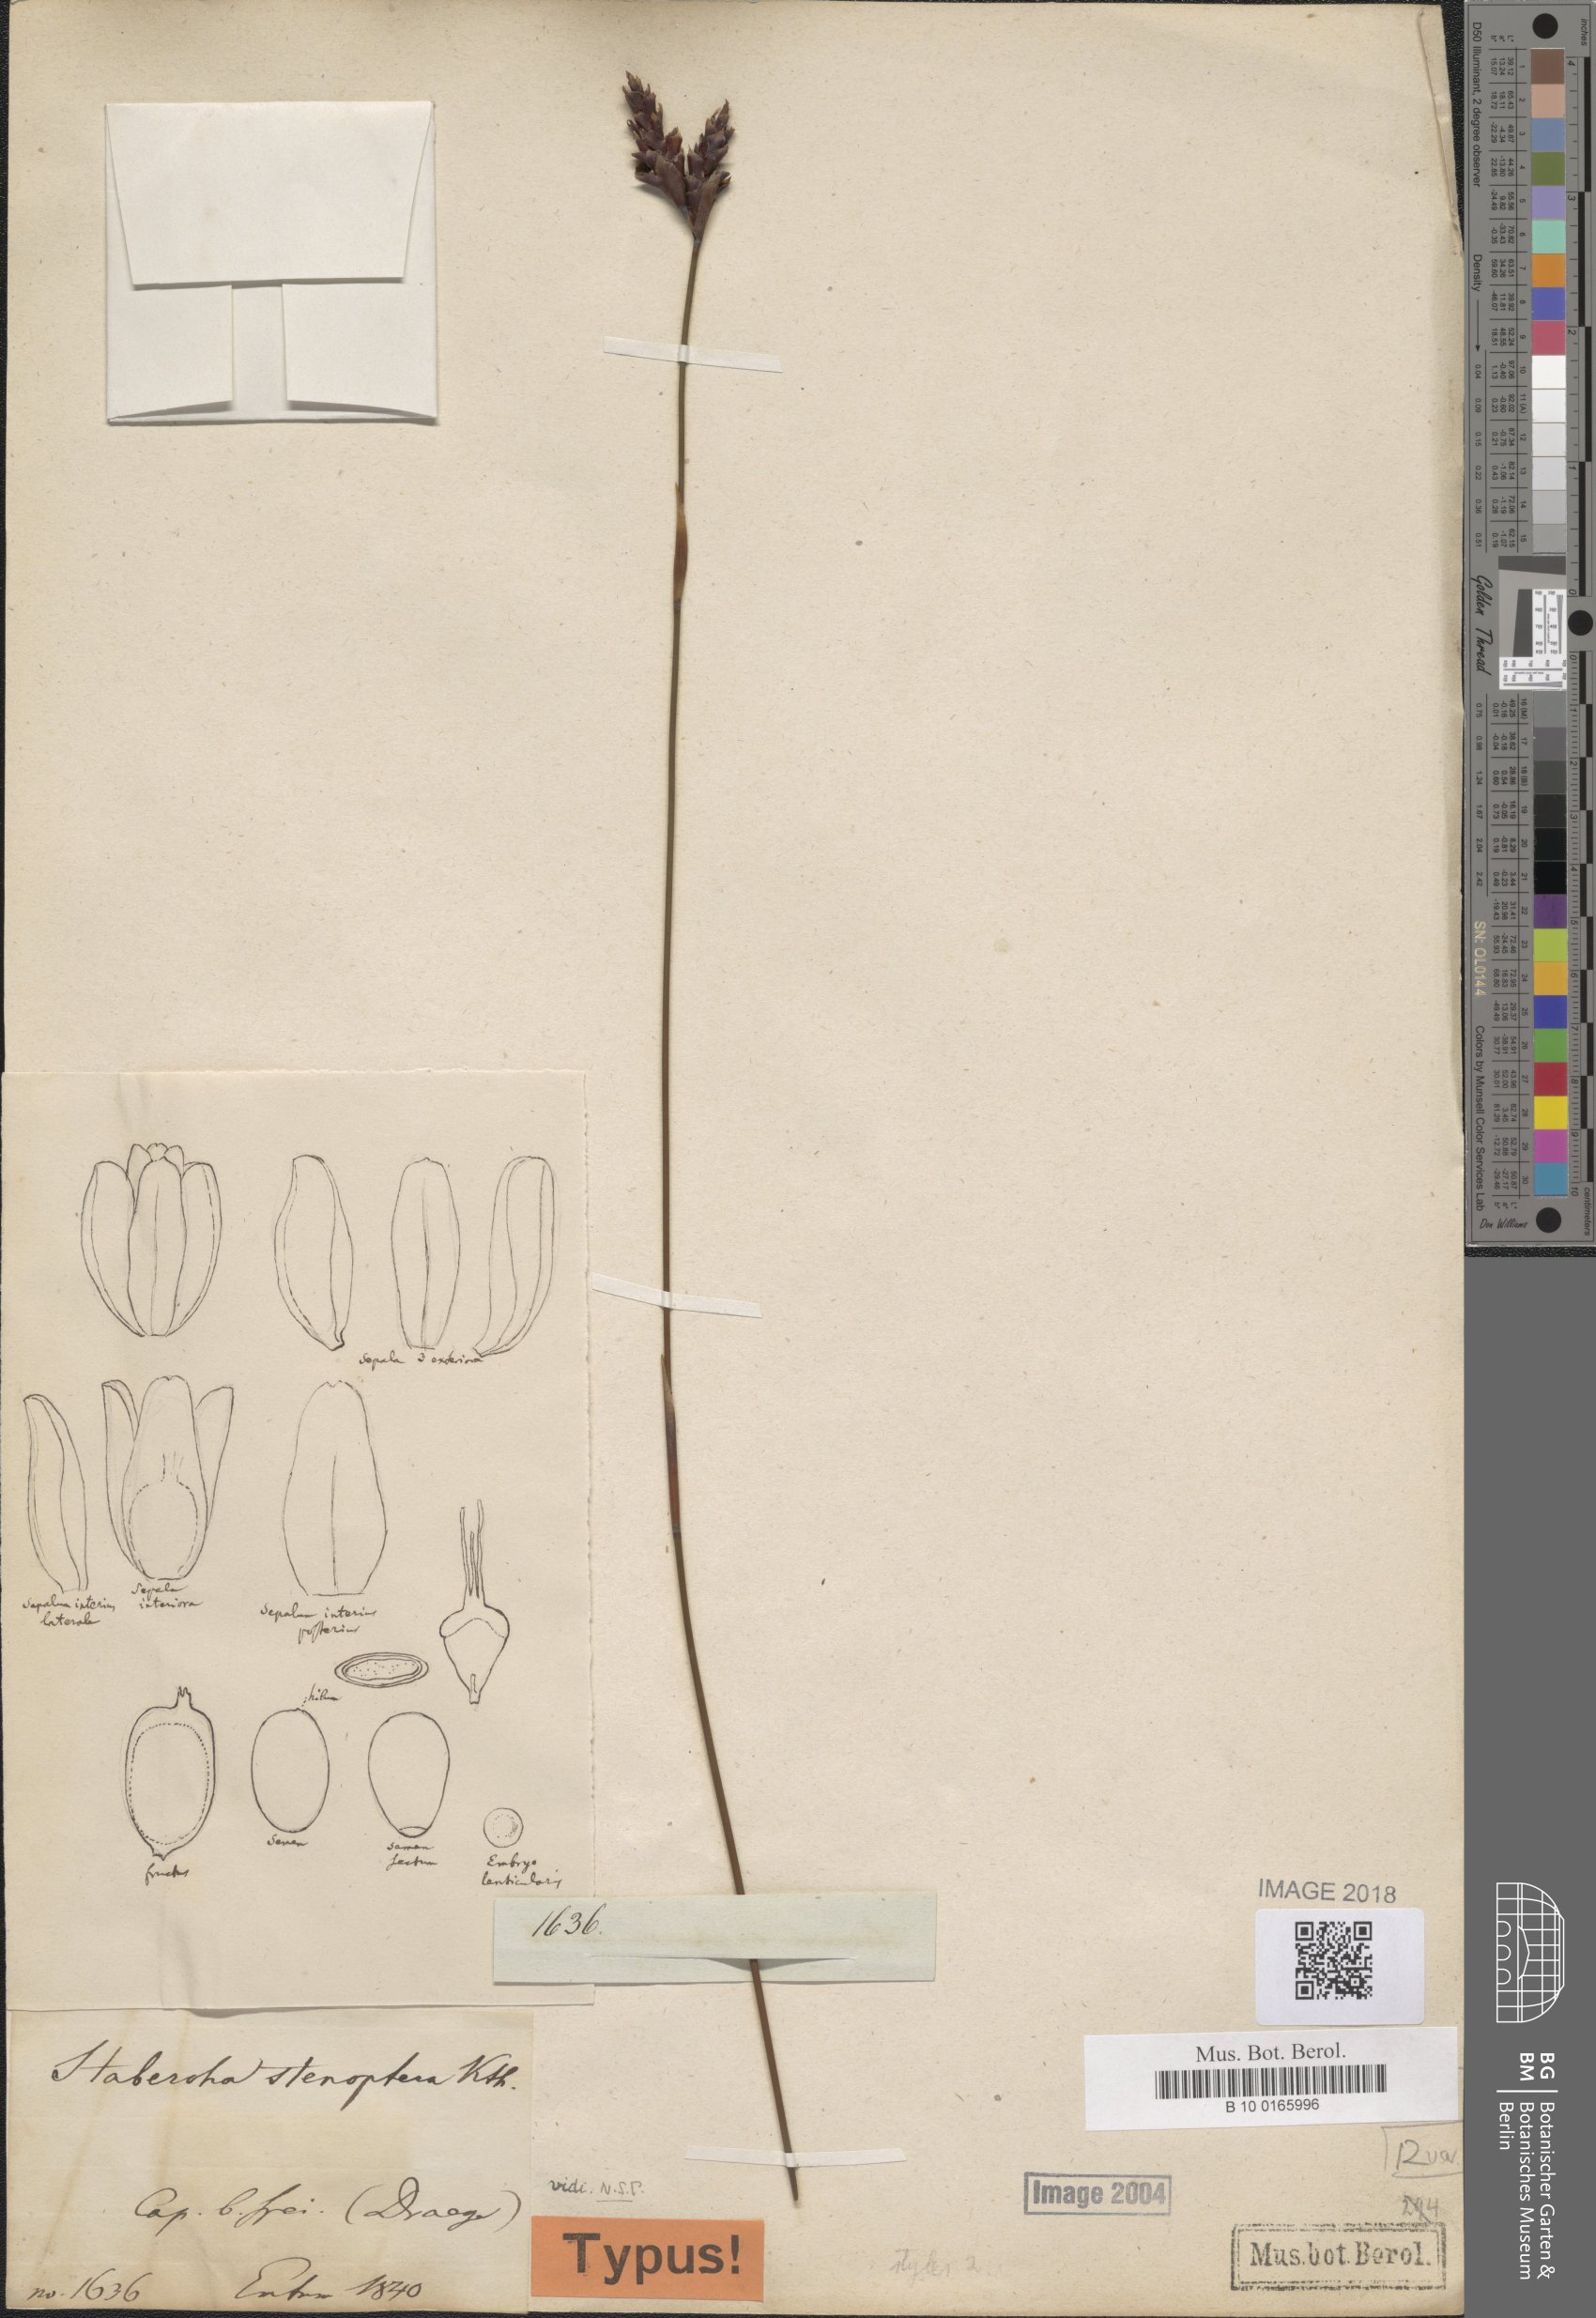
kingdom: Plantae
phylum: Tracheophyta
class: Liliopsida
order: Poales
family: Restionaceae
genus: Staberoha
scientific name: Staberoha aemula
